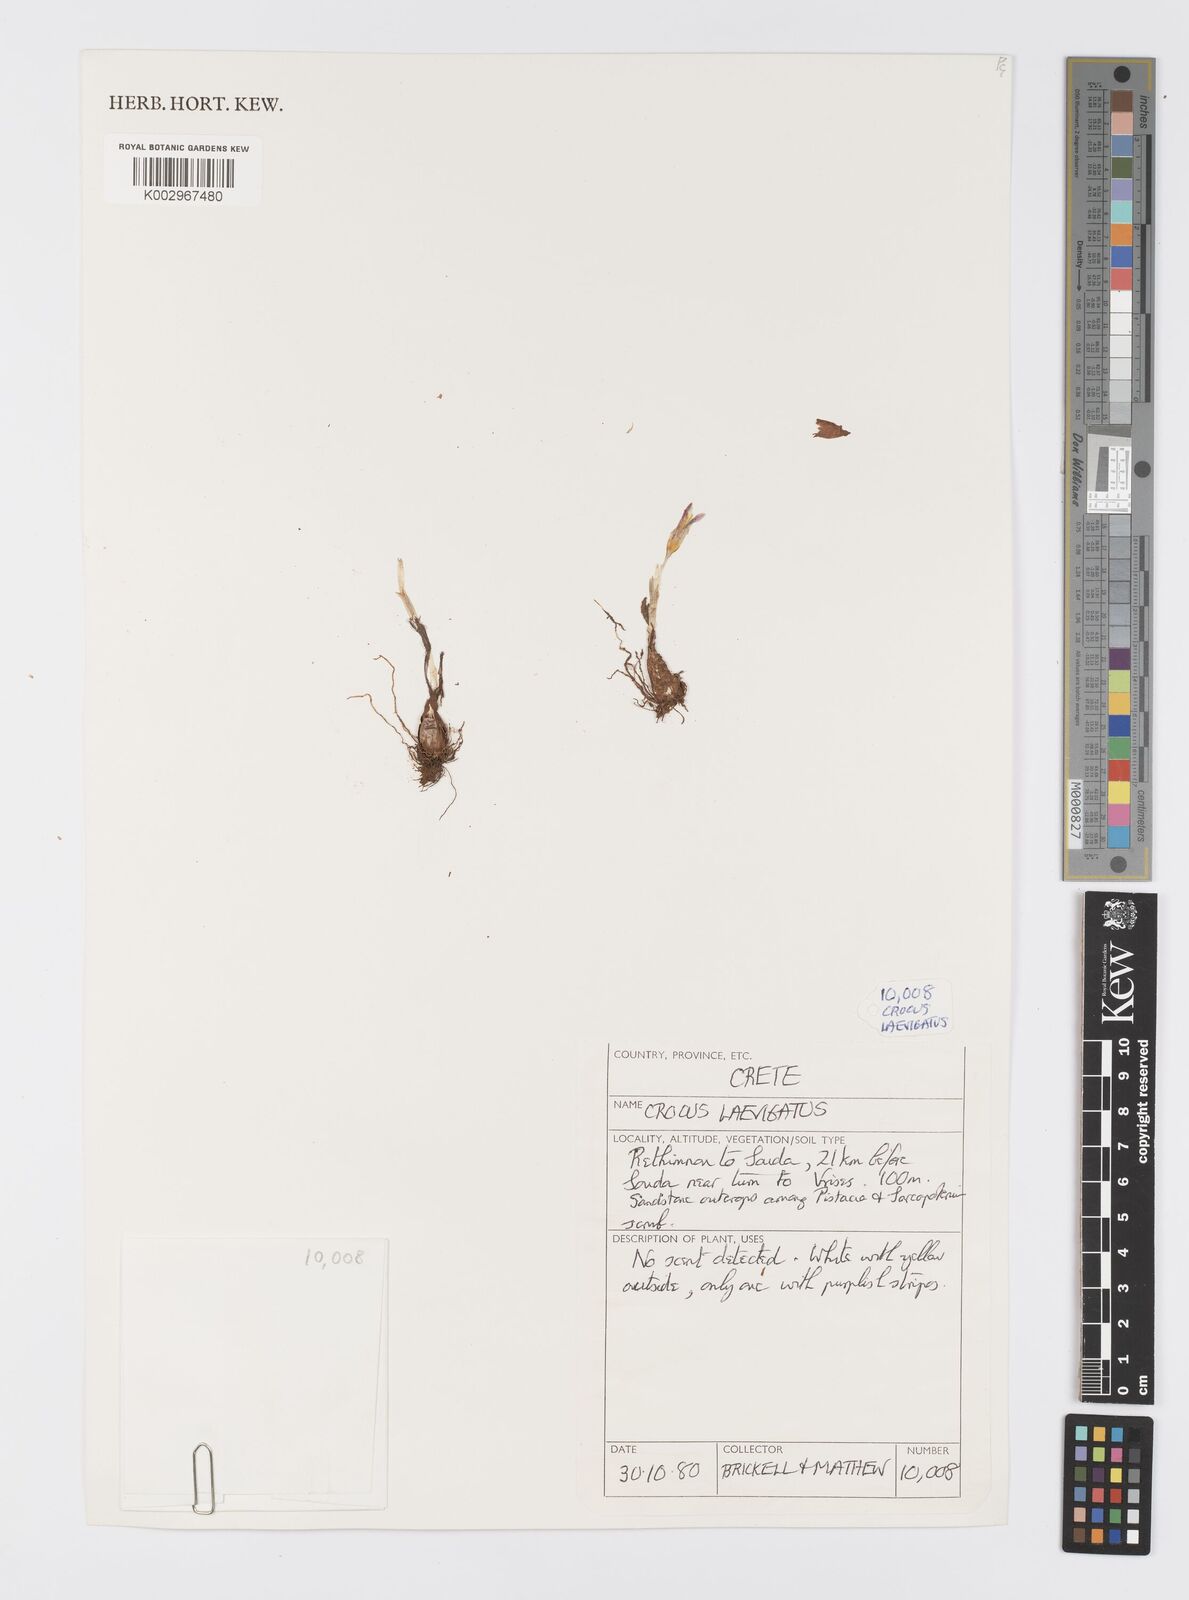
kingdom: Plantae
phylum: Tracheophyta
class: Liliopsida
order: Asparagales
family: Iridaceae
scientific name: Iridaceae
